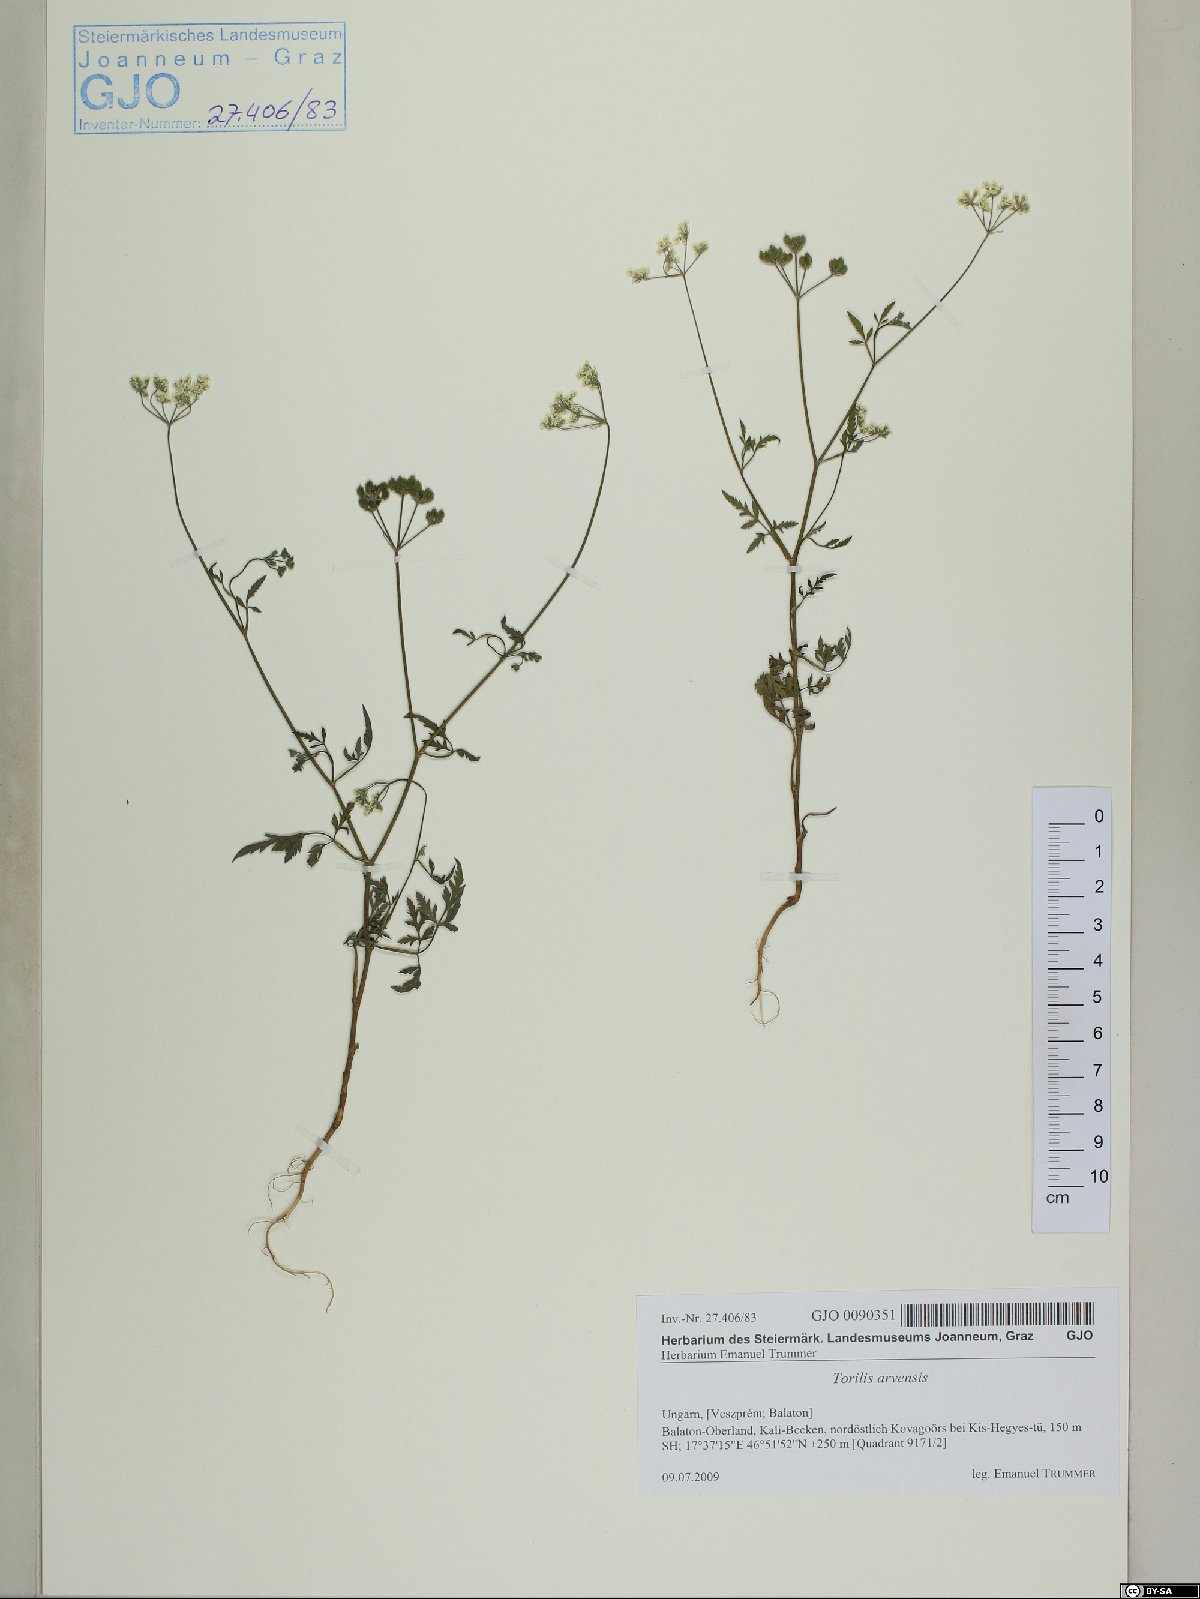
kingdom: Plantae
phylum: Tracheophyta
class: Magnoliopsida
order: Apiales
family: Apiaceae
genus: Torilis
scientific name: Torilis arvensis
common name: Spreading hedge-parsley
